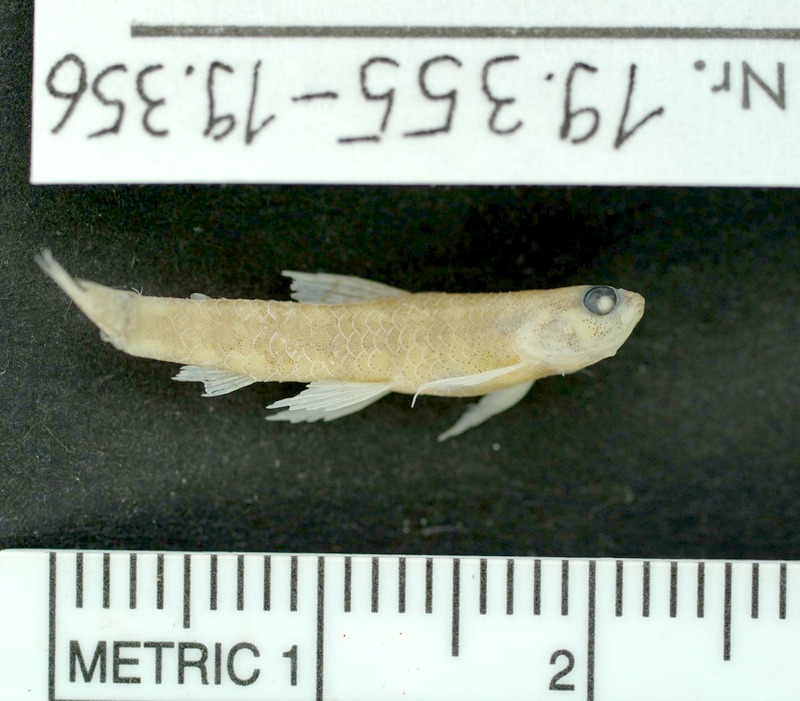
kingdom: Animalia
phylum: Chordata
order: Characiformes
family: Crenuchidae
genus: Microcharacidium
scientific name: Microcharacidium eleotrioides
